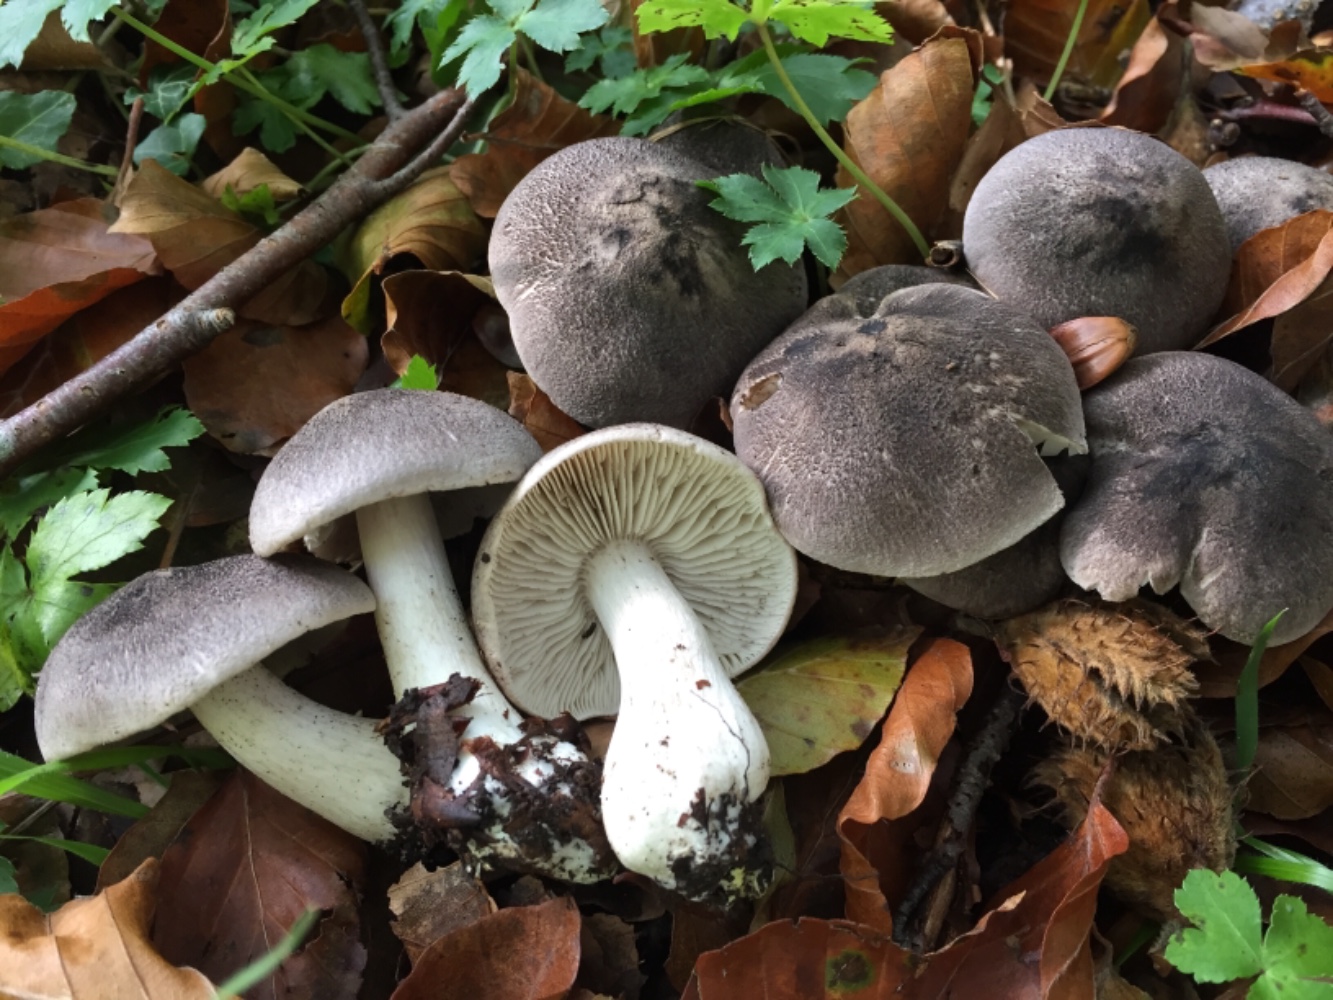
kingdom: Fungi
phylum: Basidiomycota
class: Agaricomycetes
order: Agaricales
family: Tricholomataceae
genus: Tricholoma
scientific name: Tricholoma orirubens
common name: rødbladet ridderhat
